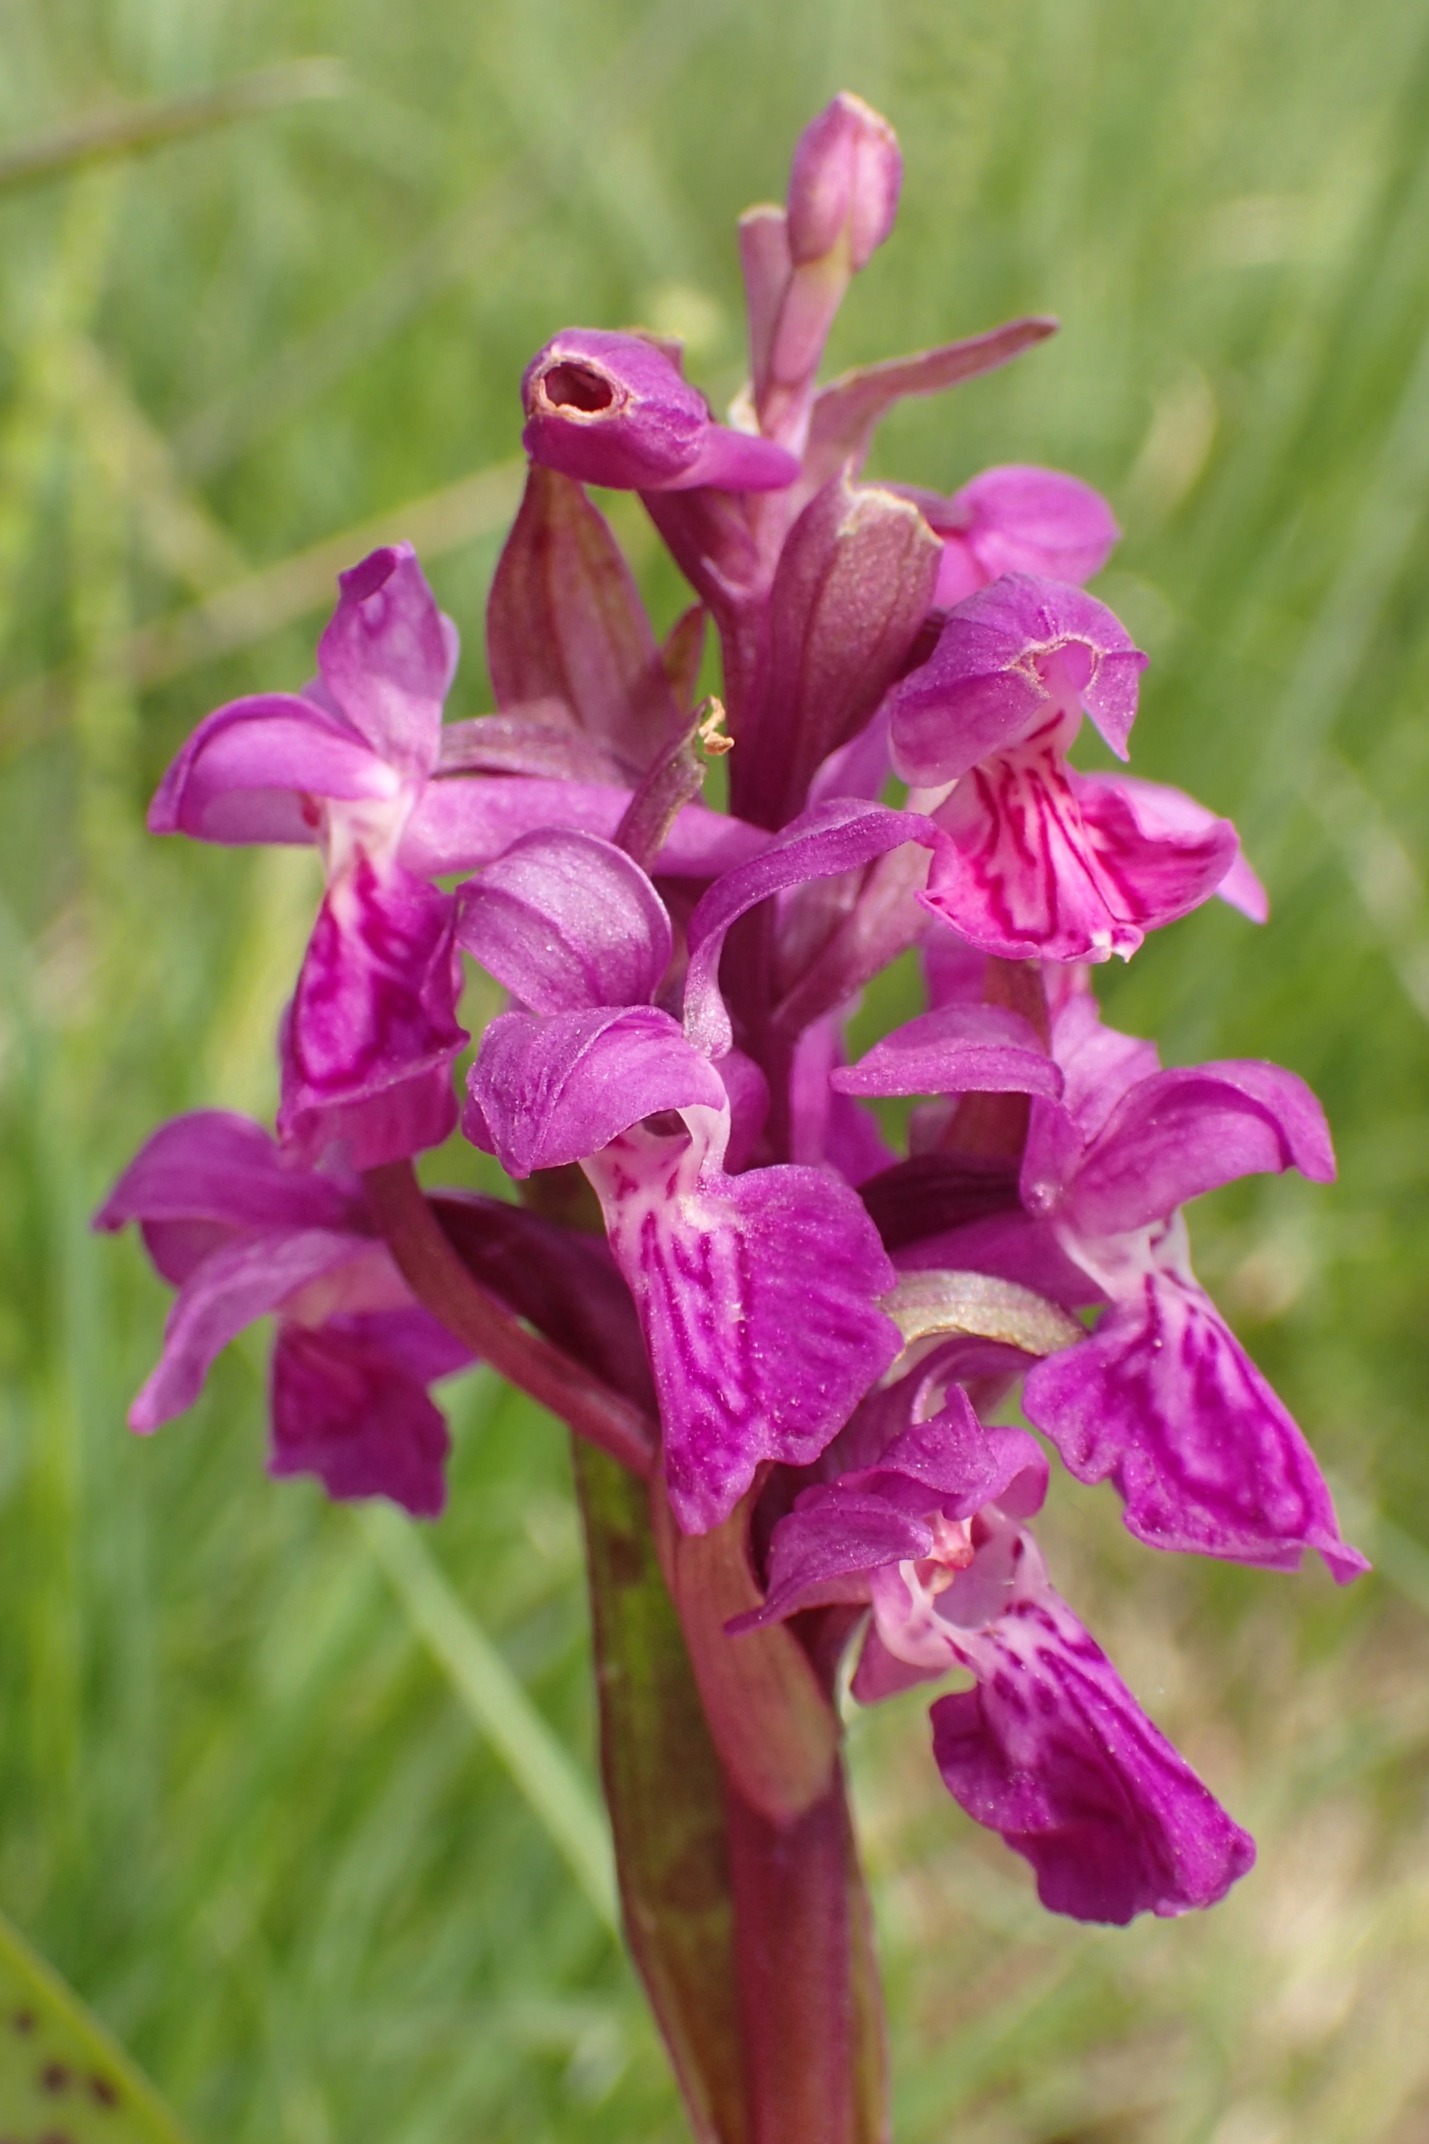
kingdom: Plantae
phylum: Tracheophyta
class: Liliopsida
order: Asparagales
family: Orchidaceae
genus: Dactylorhiza
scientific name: Dactylorhiza majalis
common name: Maj-gøgeurt
